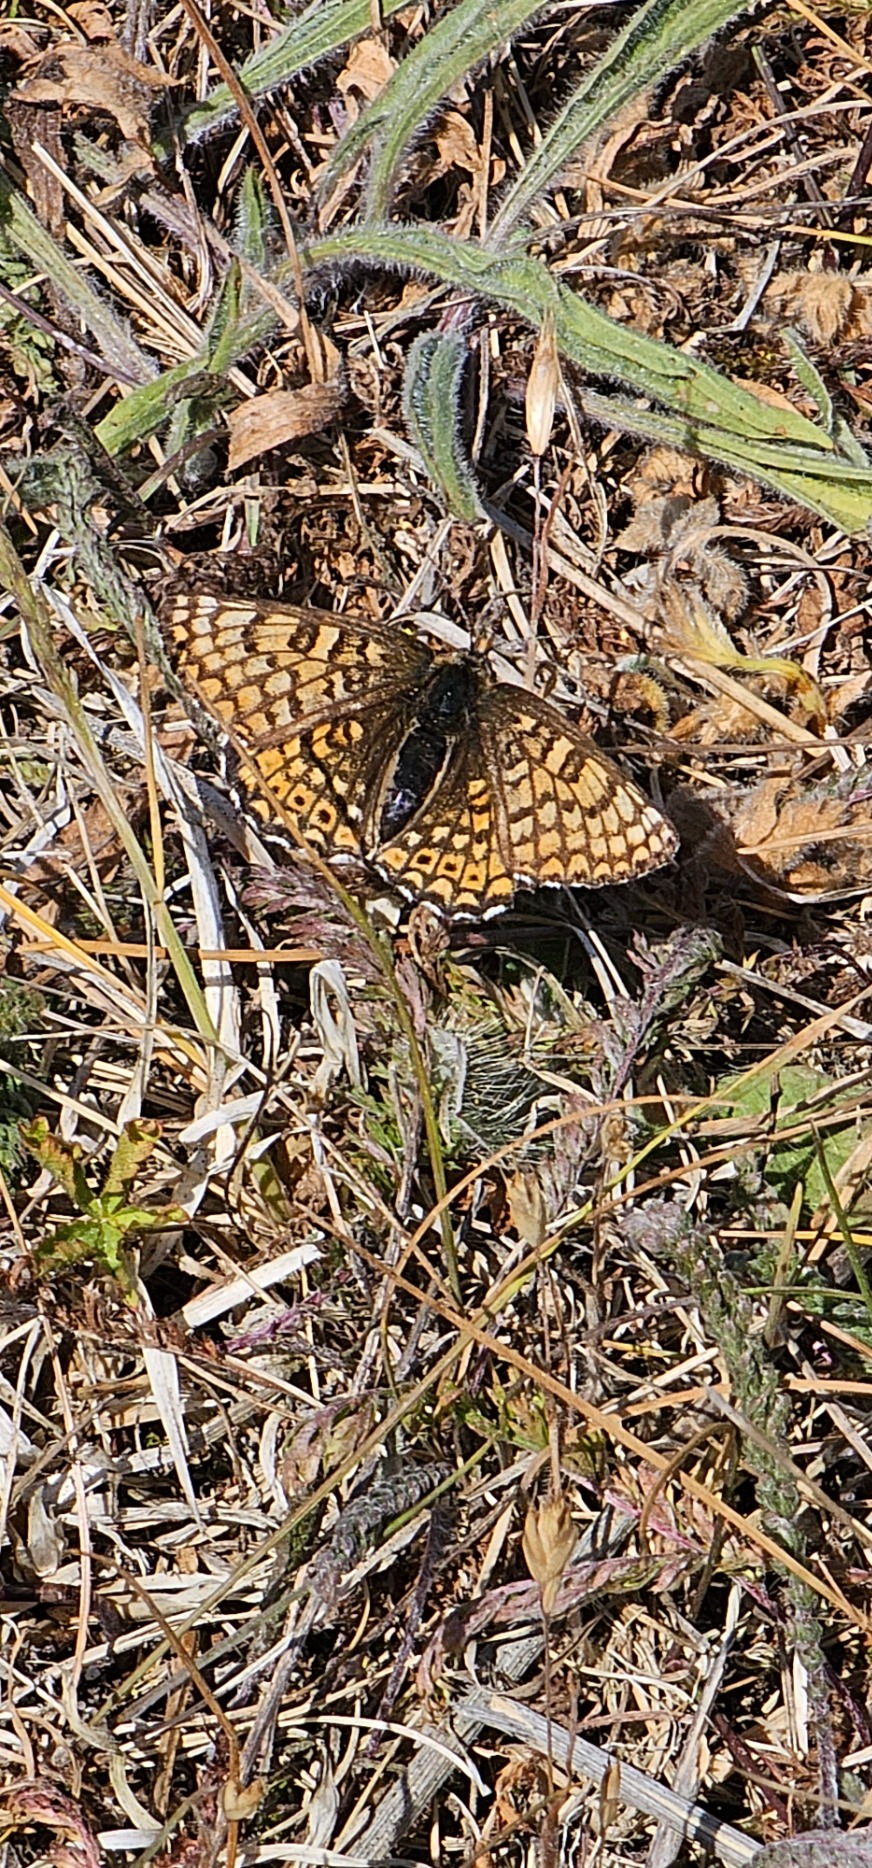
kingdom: Animalia
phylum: Arthropoda
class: Insecta
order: Lepidoptera
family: Nymphalidae
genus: Melitaea
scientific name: Melitaea cinxia
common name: Okkergul pletvinge
